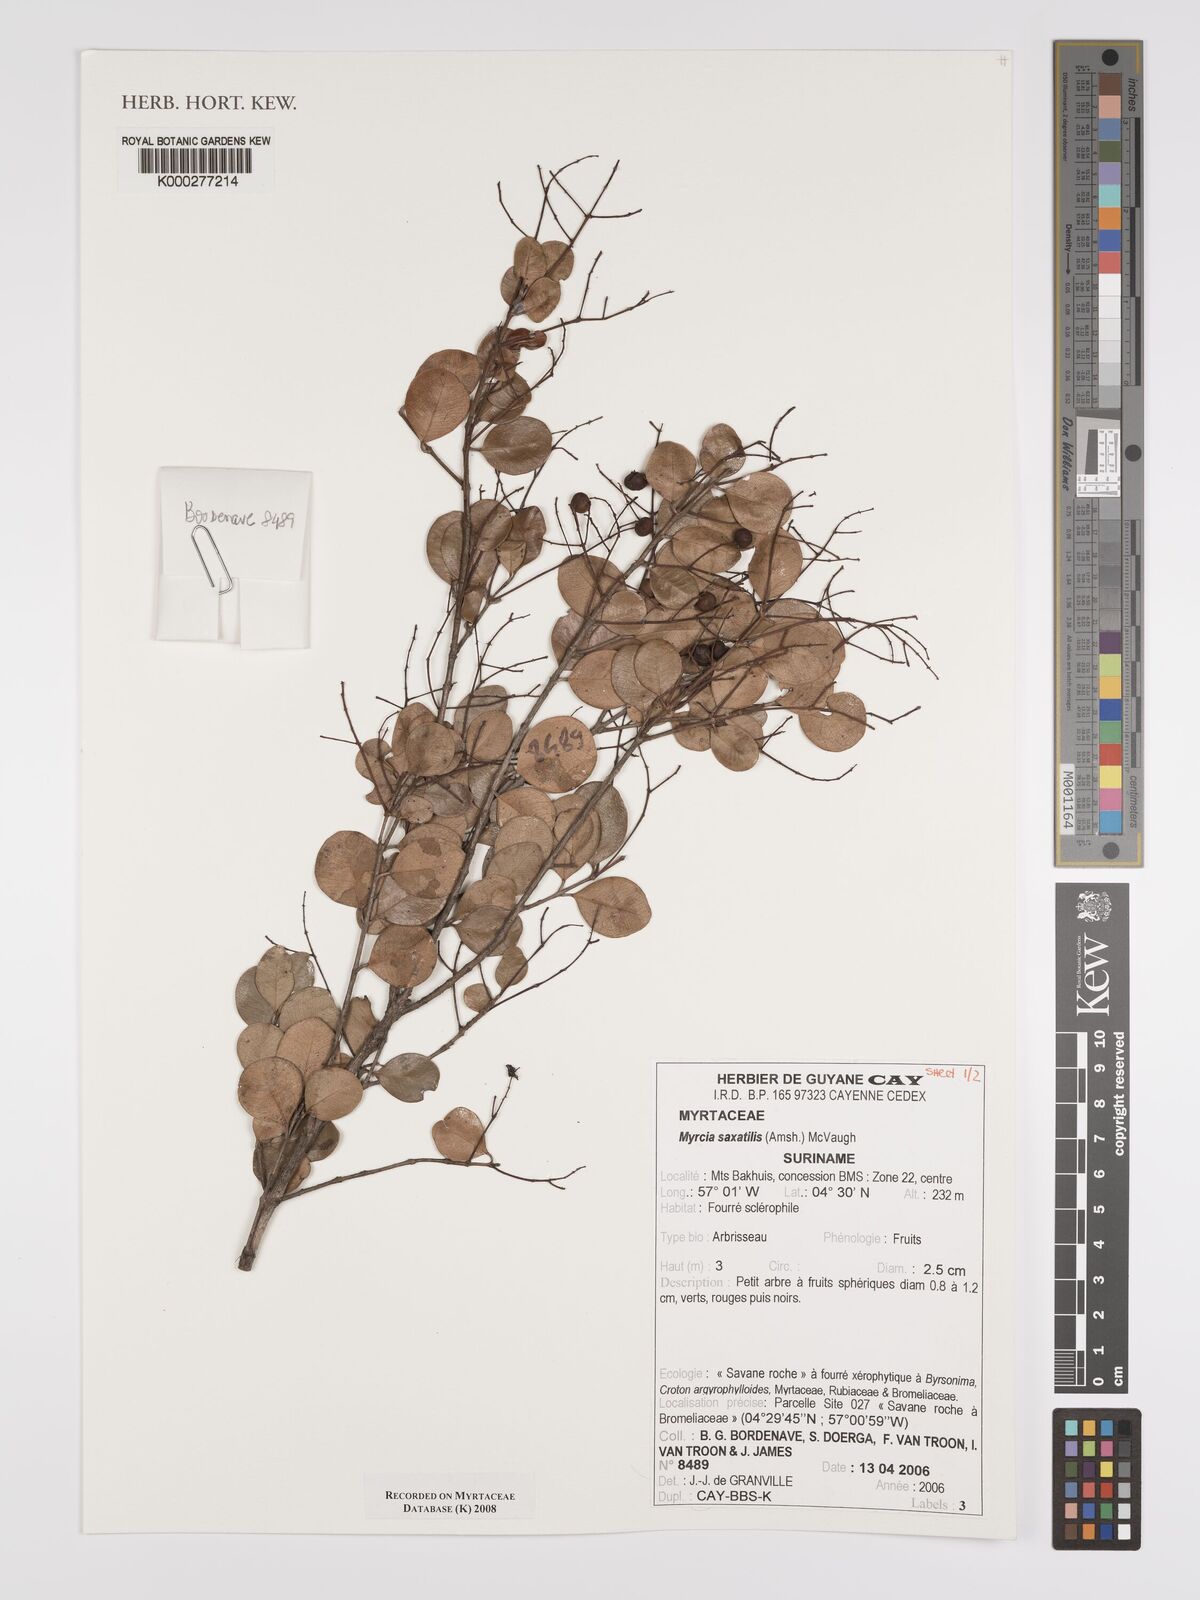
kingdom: Plantae
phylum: Tracheophyta
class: Magnoliopsida
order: Myrtales
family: Myrtaceae
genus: Myrcia
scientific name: Myrcia saxatilis
